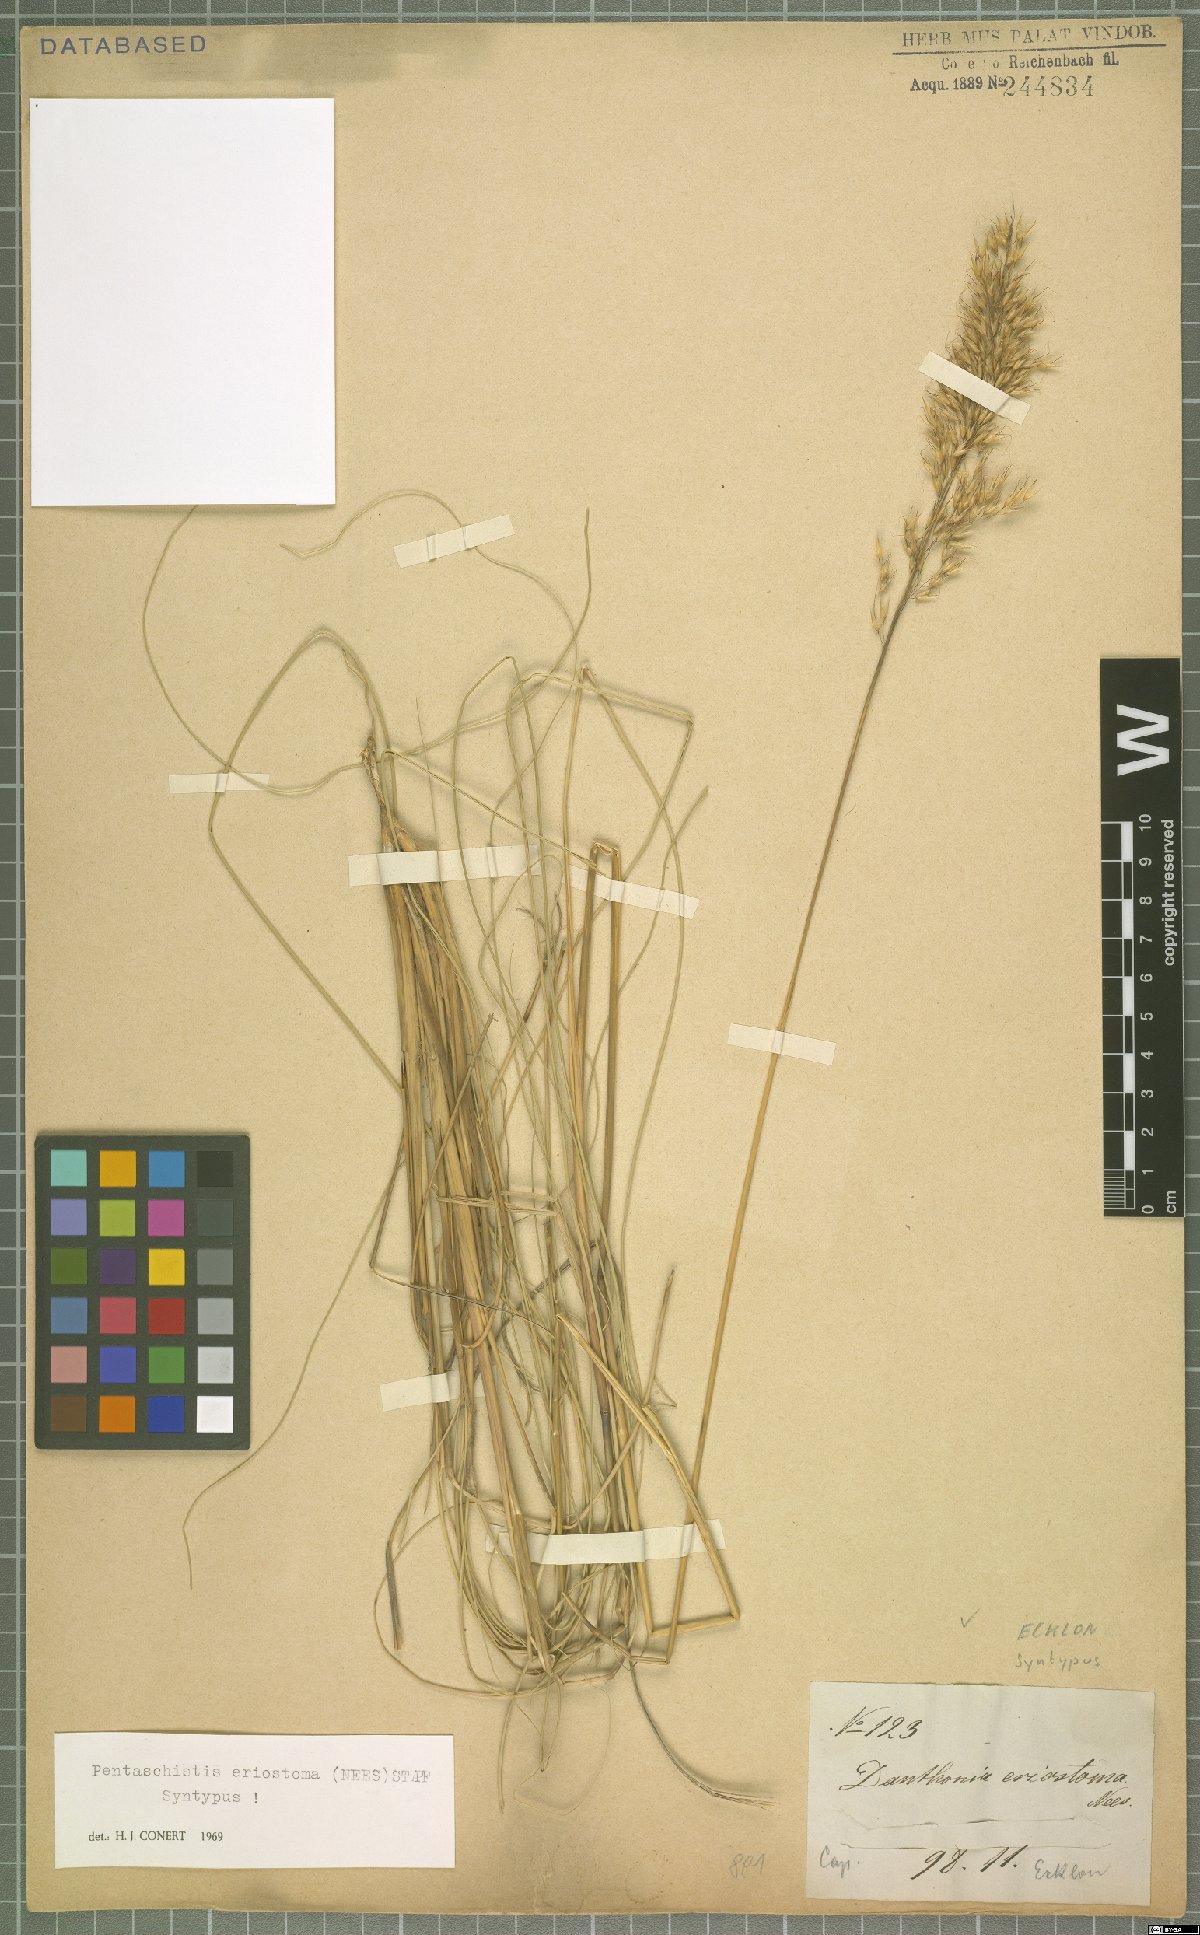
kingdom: Plantae
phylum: Tracheophyta
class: Liliopsida
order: Poales
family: Poaceae
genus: Pentameris
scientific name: Pentameris eriostoma
